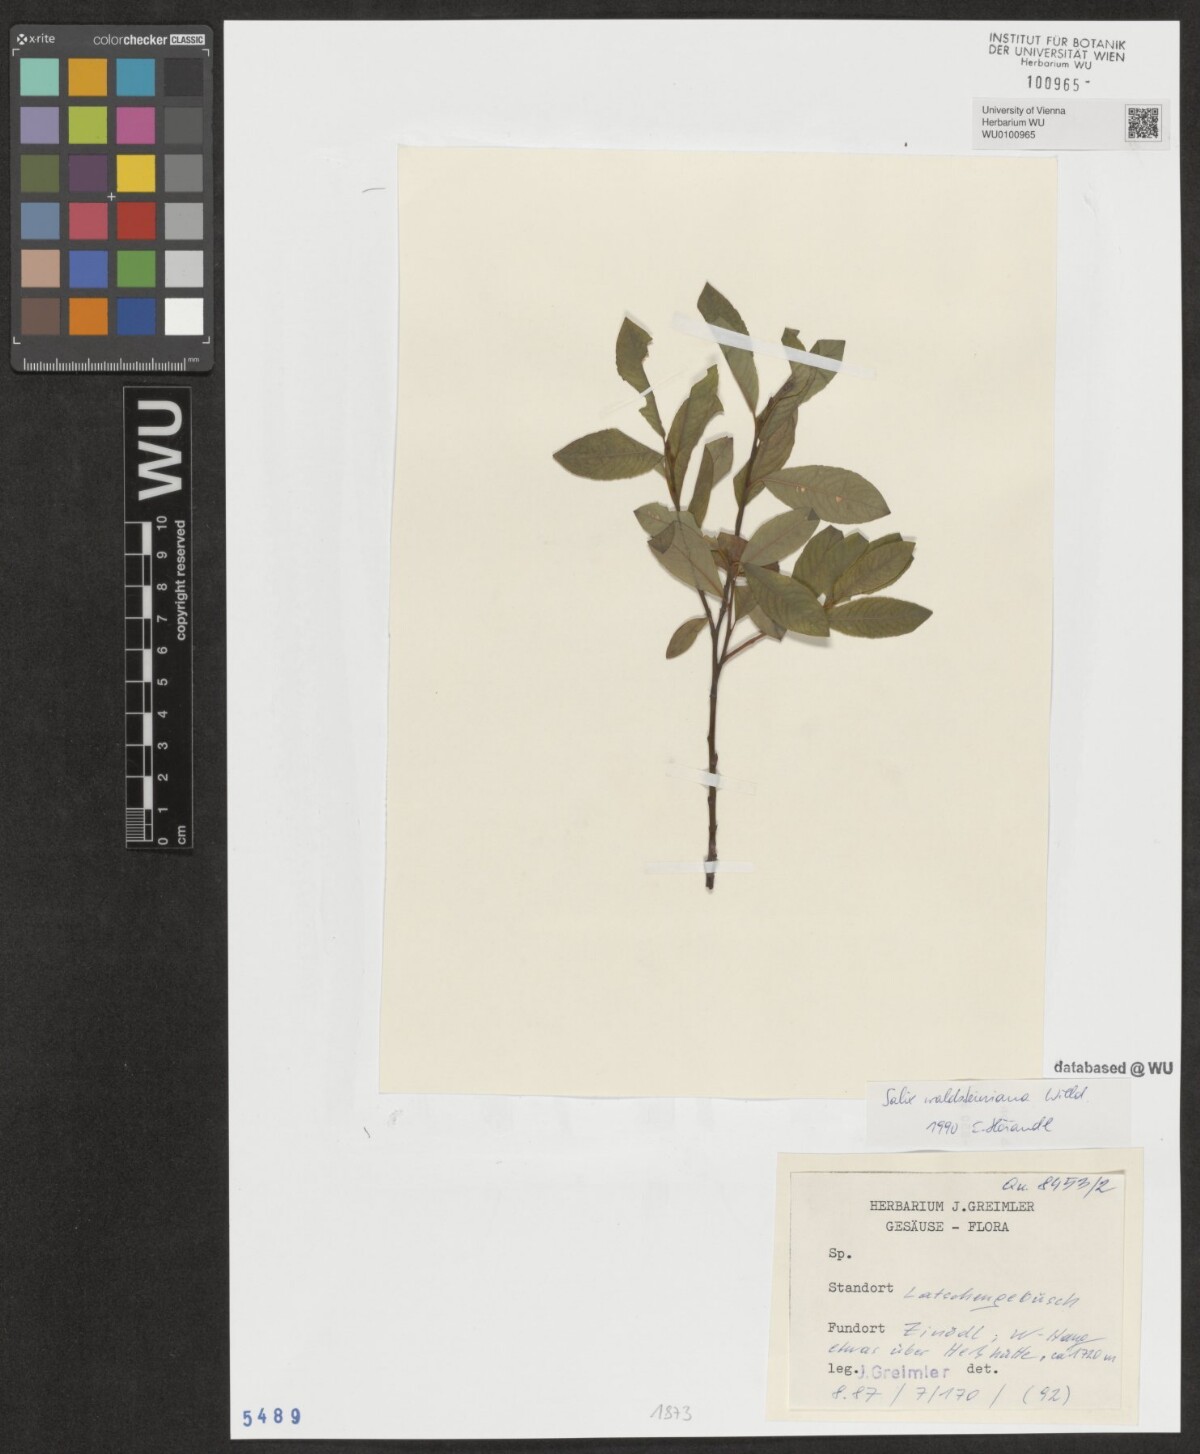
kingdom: Plantae
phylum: Tracheophyta
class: Magnoliopsida
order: Malpighiales
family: Salicaceae
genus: Salix
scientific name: Salix waldsteiniana
